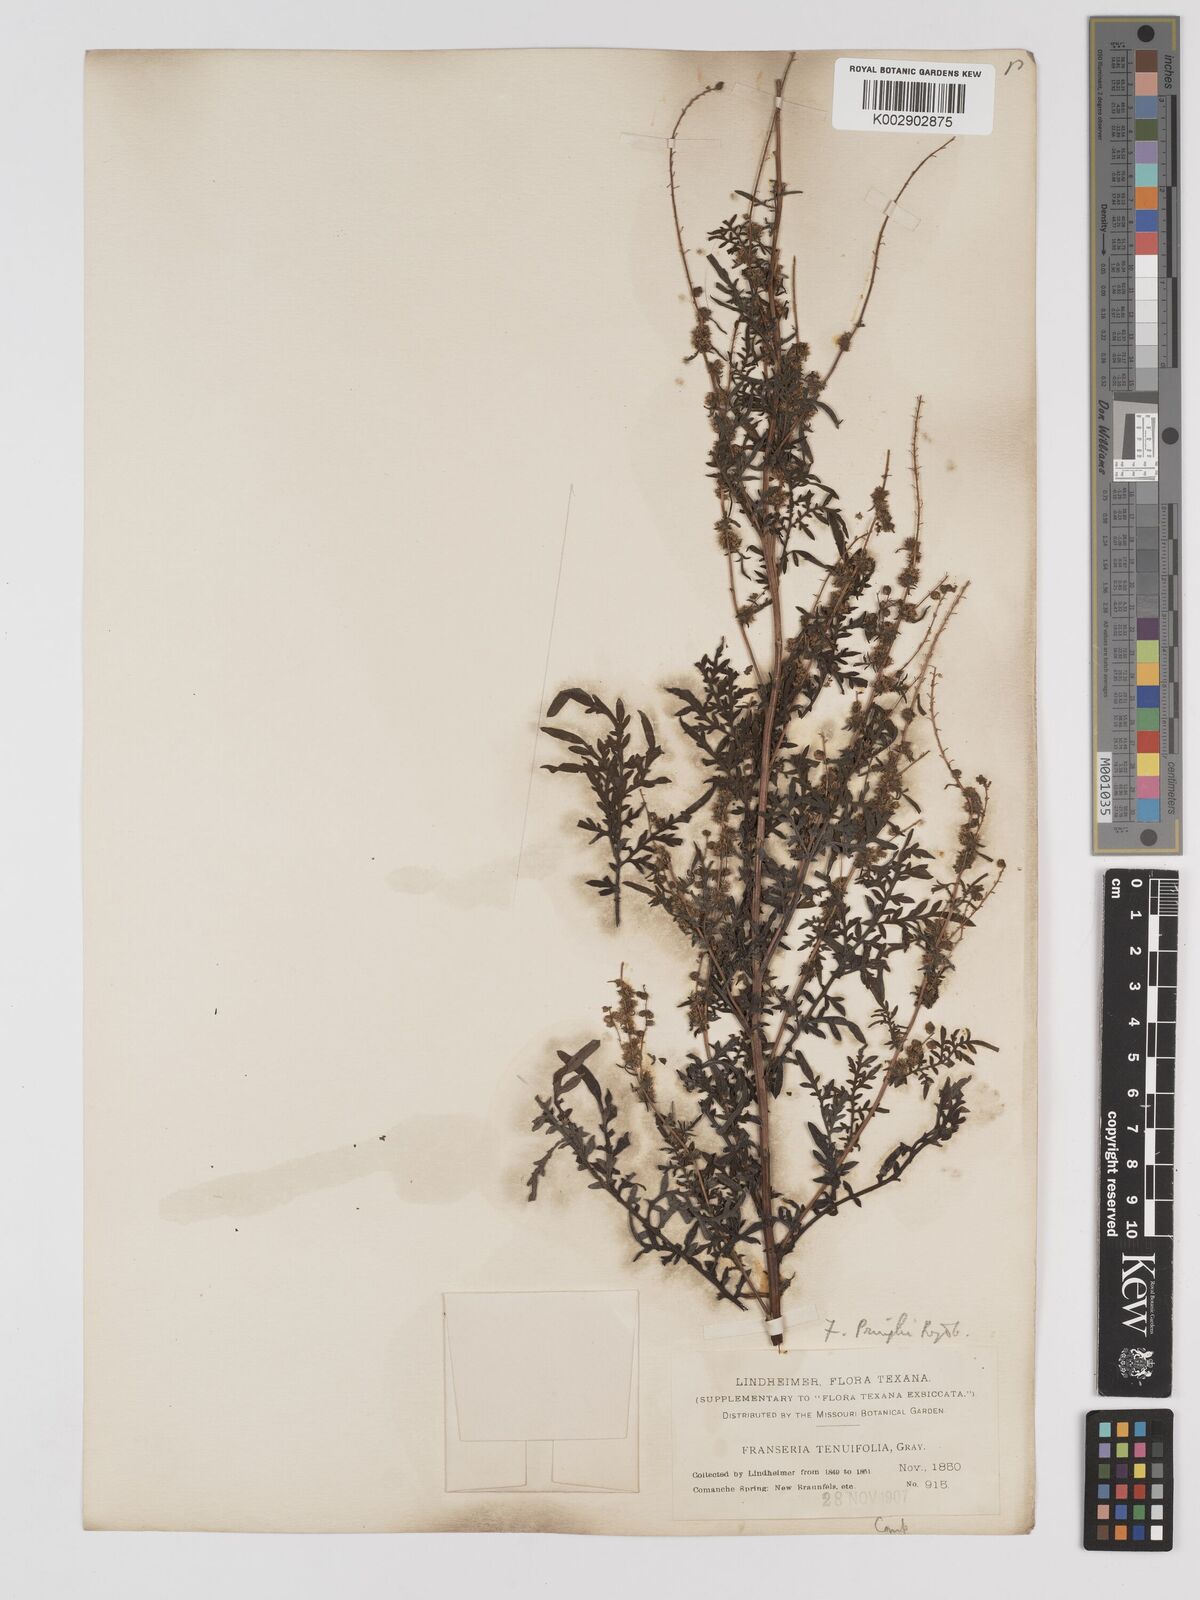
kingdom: Plantae
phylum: Tracheophyta
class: Magnoliopsida
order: Asterales
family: Asteraceae
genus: Ambrosia
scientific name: Ambrosia confertiflora
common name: Bur ragweed
